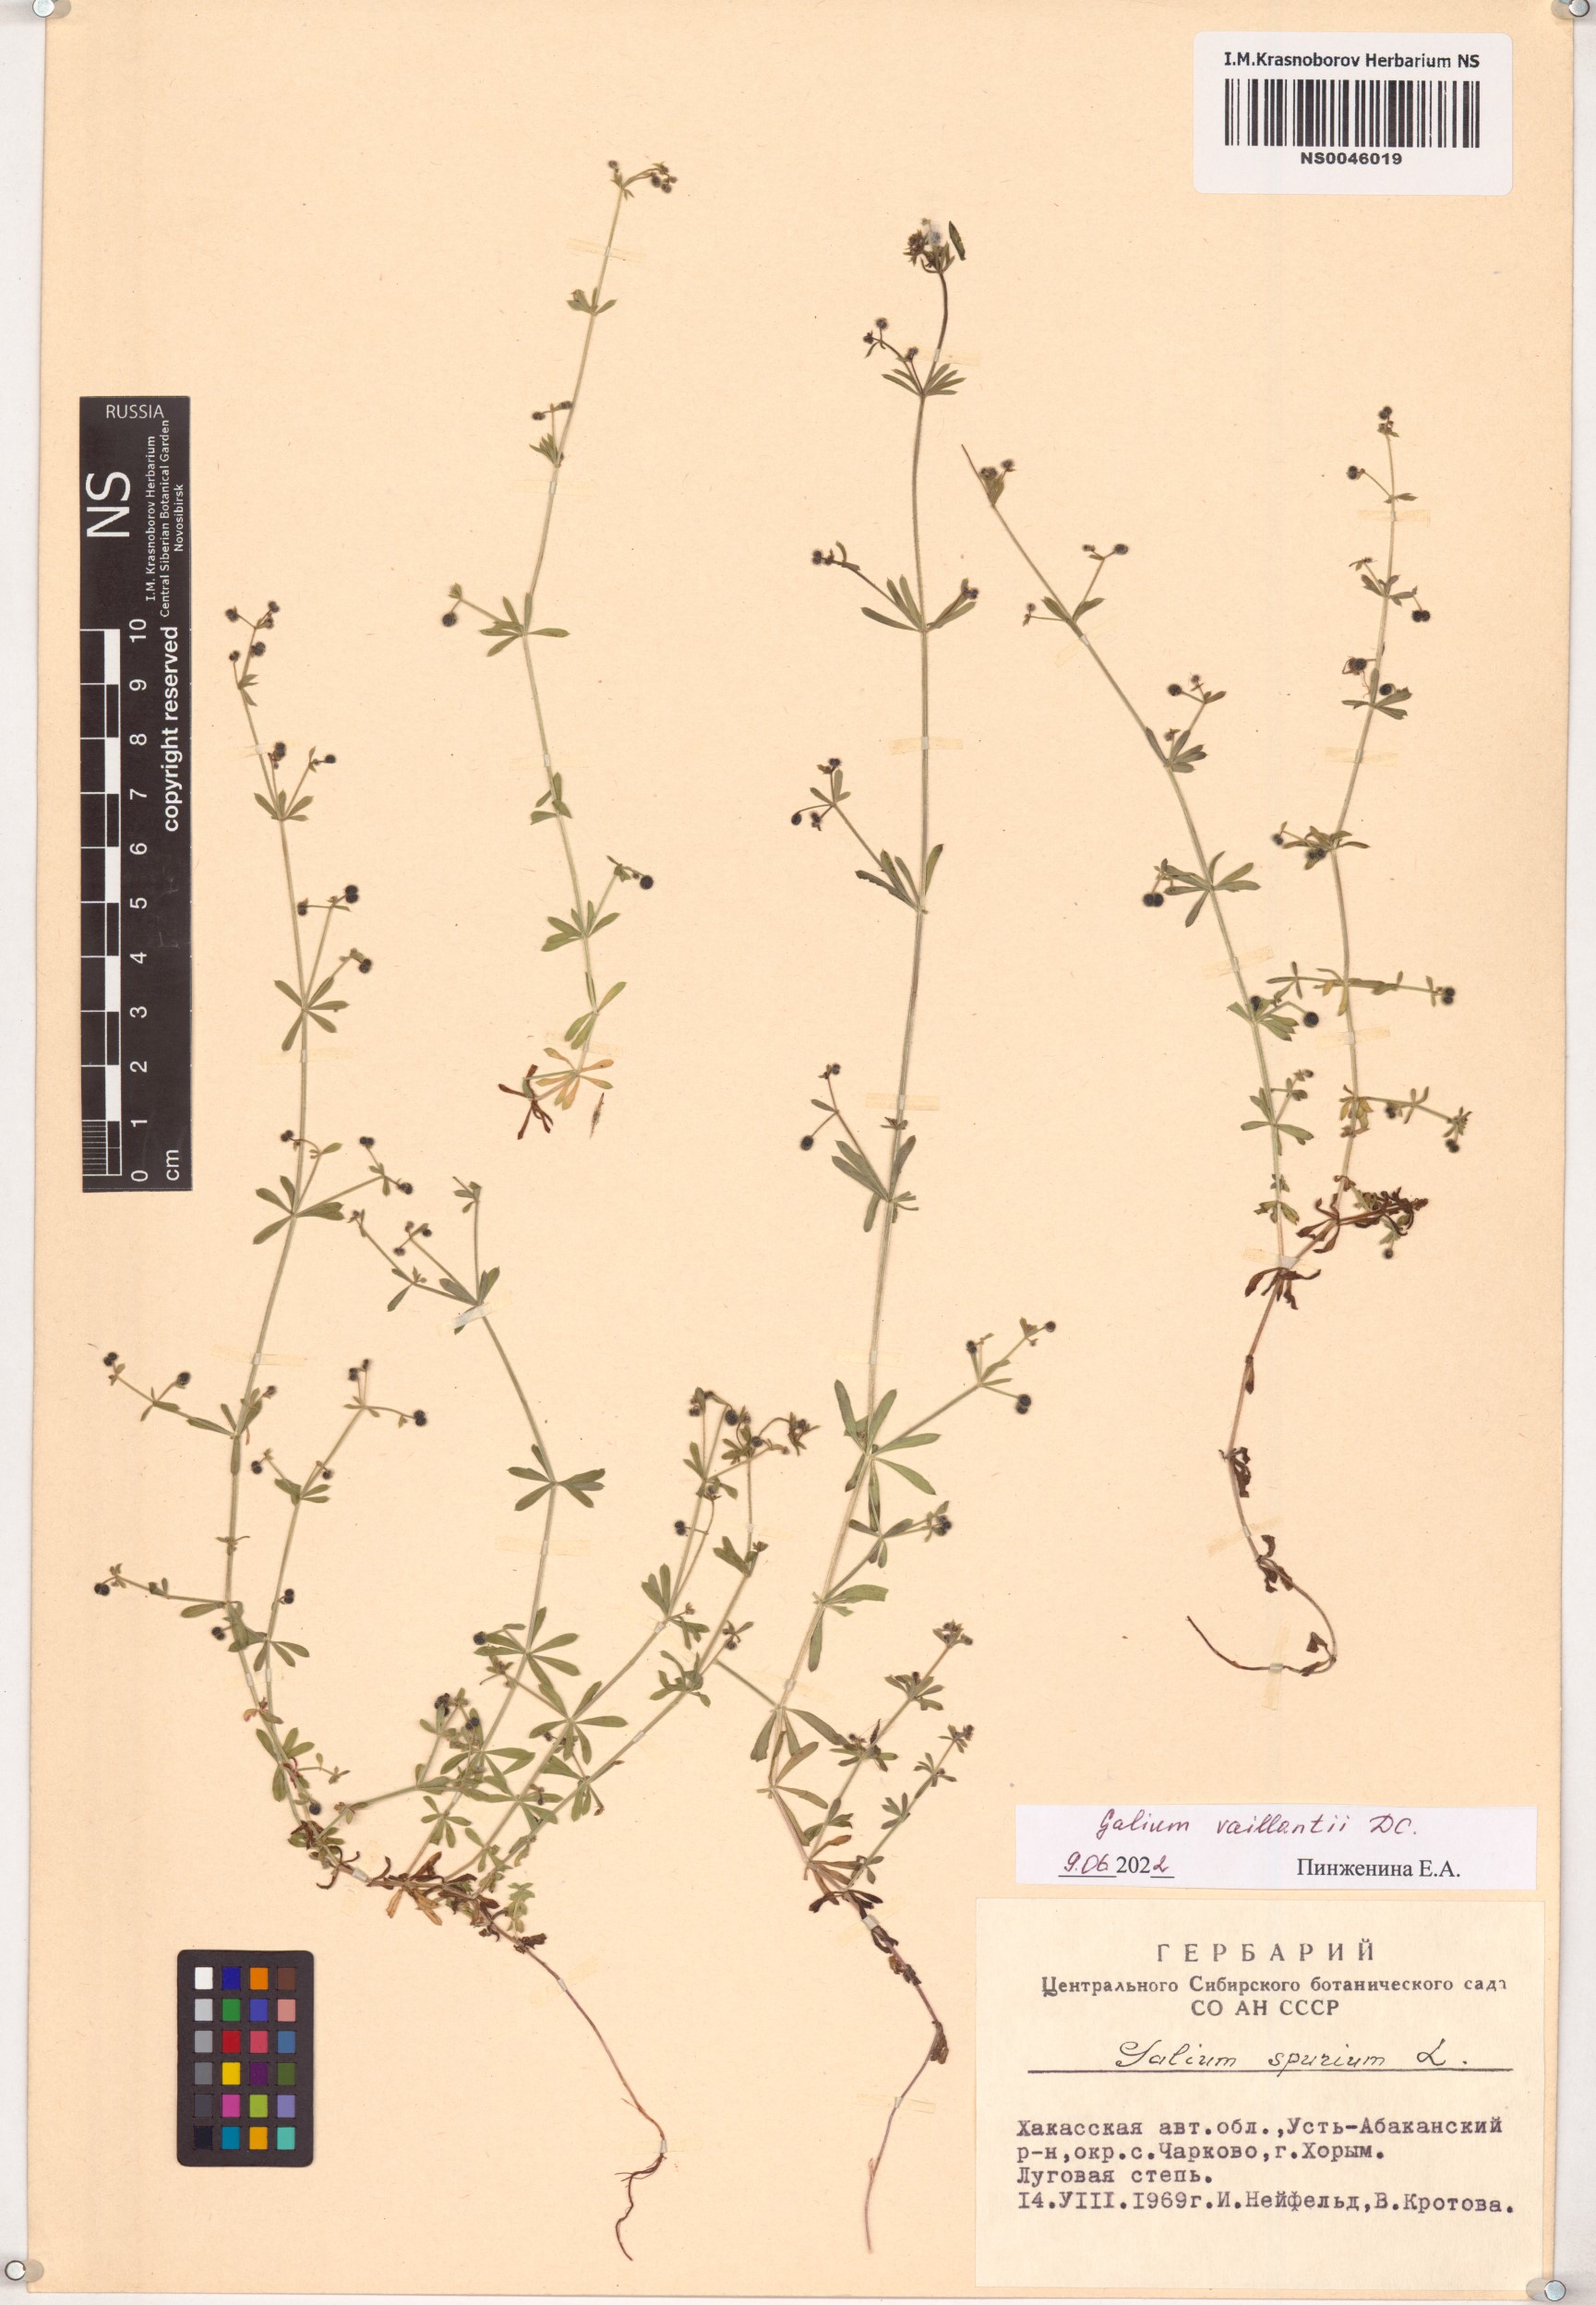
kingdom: Plantae
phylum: Tracheophyta
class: Magnoliopsida
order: Gentianales
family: Rubiaceae
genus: Galium
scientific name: Galium spurium
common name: False cleavers
